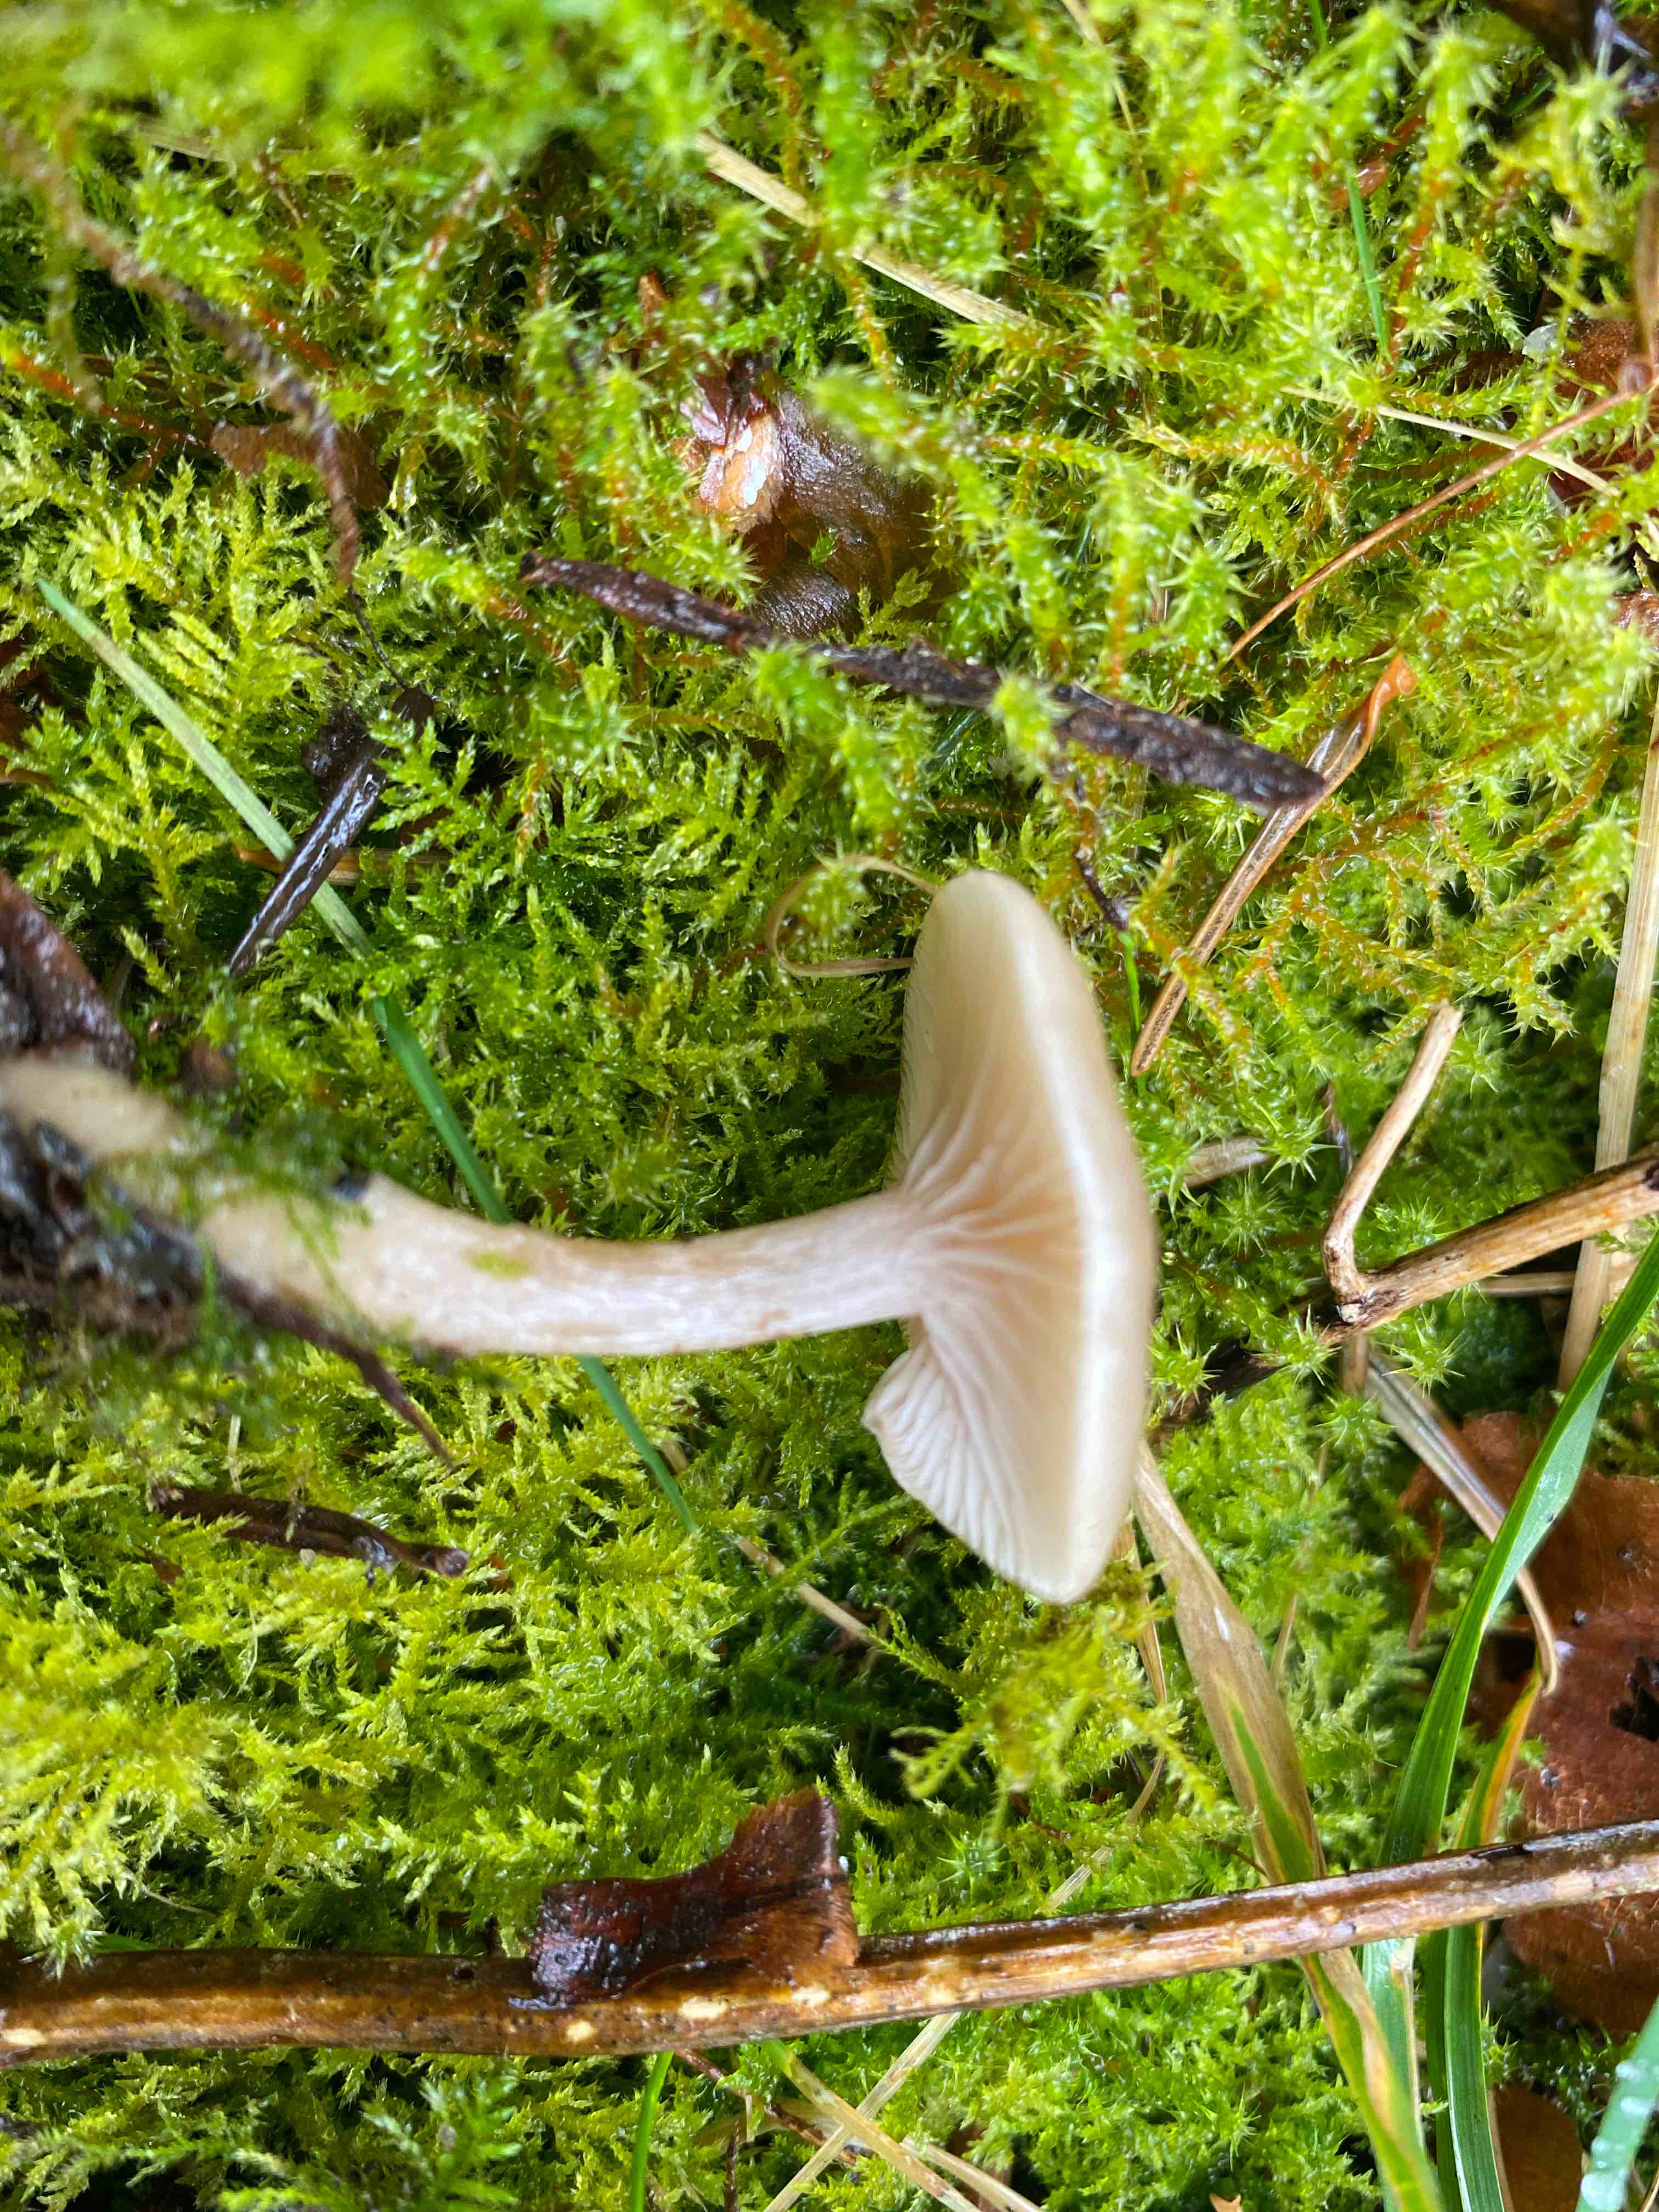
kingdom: Fungi
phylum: Basidiomycota
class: Agaricomycetes
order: Agaricales
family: Tricholomataceae
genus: Clitocybe
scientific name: Clitocybe fragrans
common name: vellugtende tragthat
